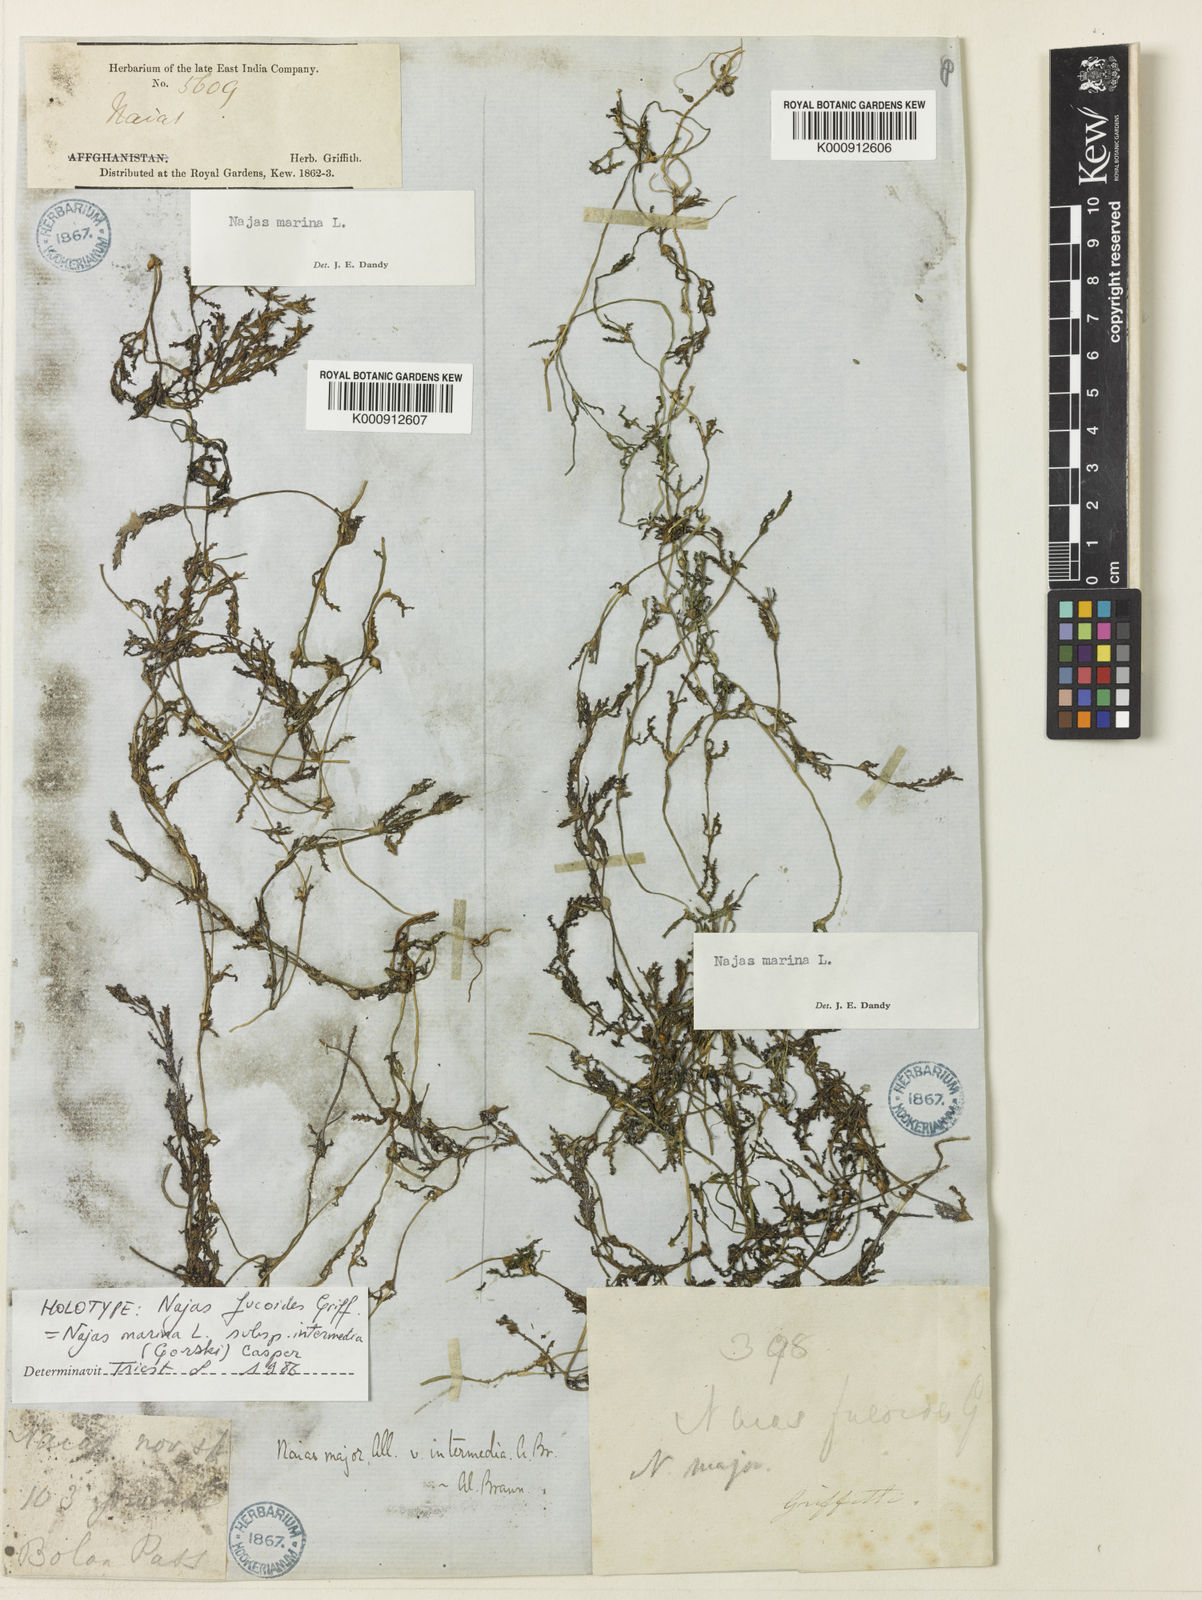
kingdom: Plantae
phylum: Tracheophyta
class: Liliopsida
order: Alismatales
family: Hydrocharitaceae
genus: Najas
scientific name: Najas marina
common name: Holly-leaved naiad
